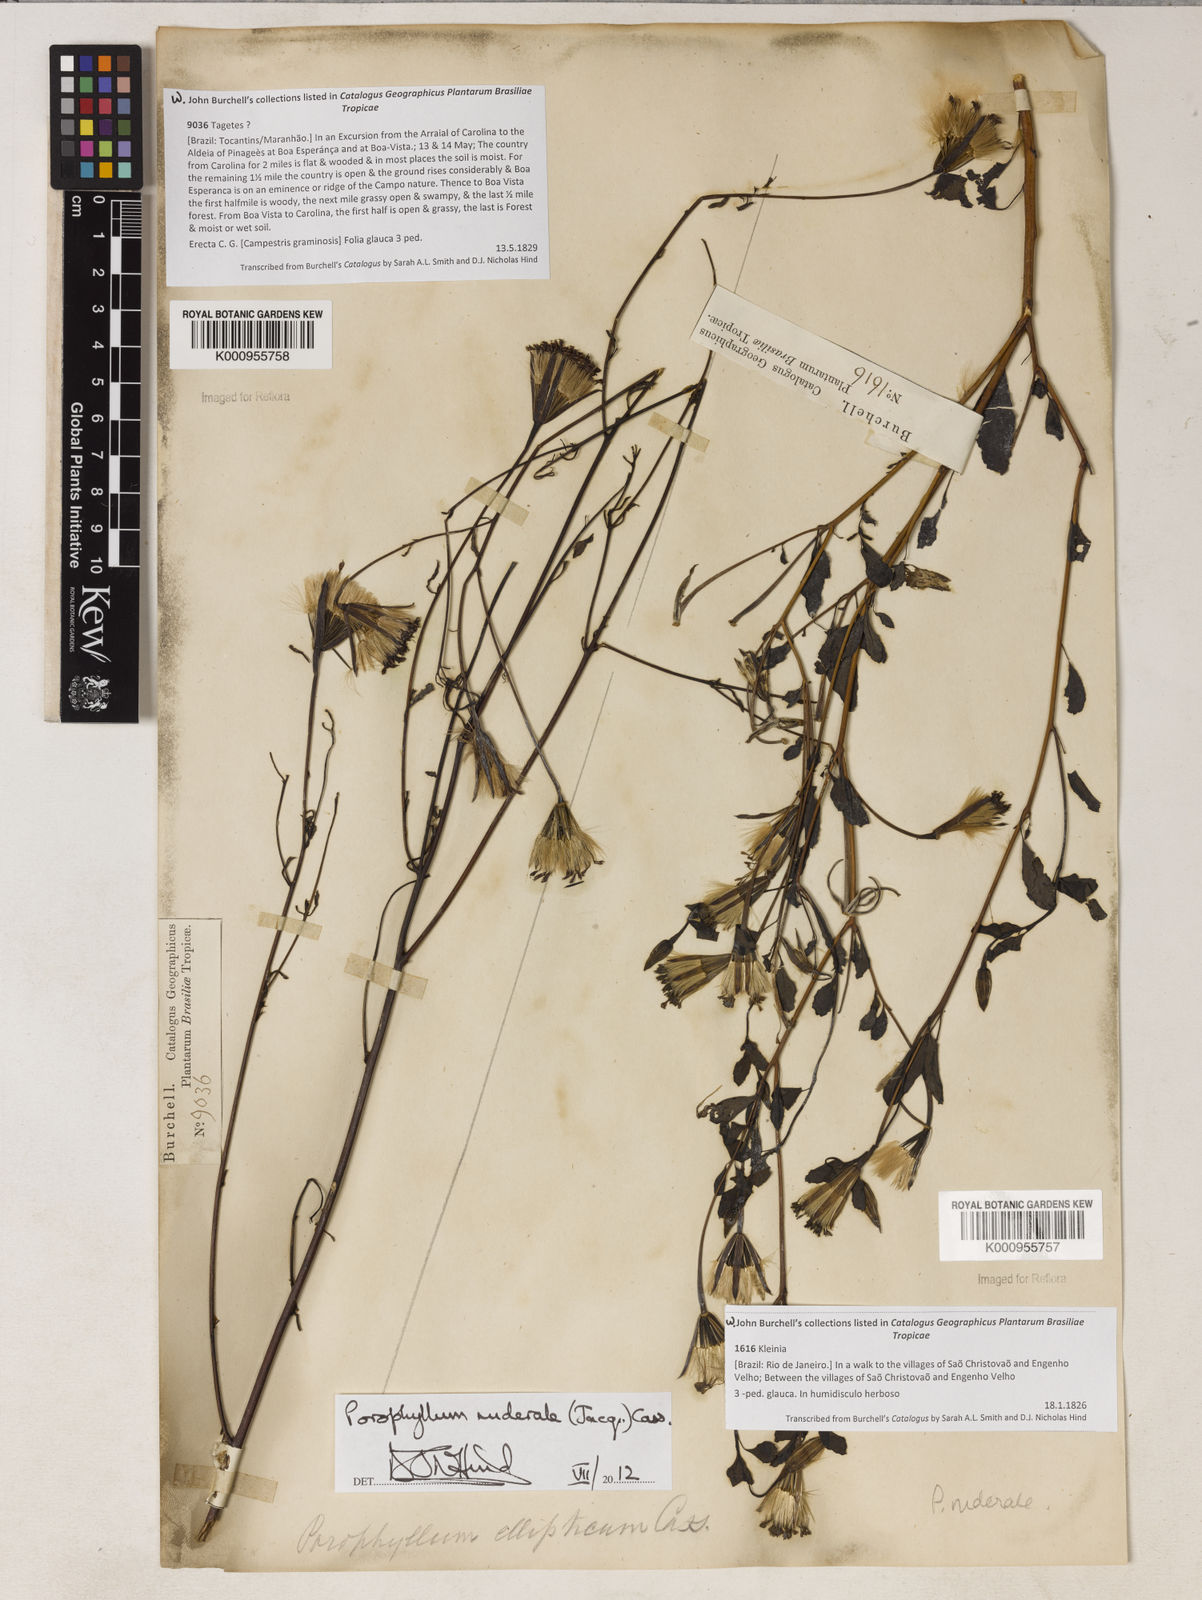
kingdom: Plantae
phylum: Tracheophyta
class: Magnoliopsida
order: Asterales
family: Asteraceae
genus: Porophyllum
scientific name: Porophyllum ruderale
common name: Yerba porosa
